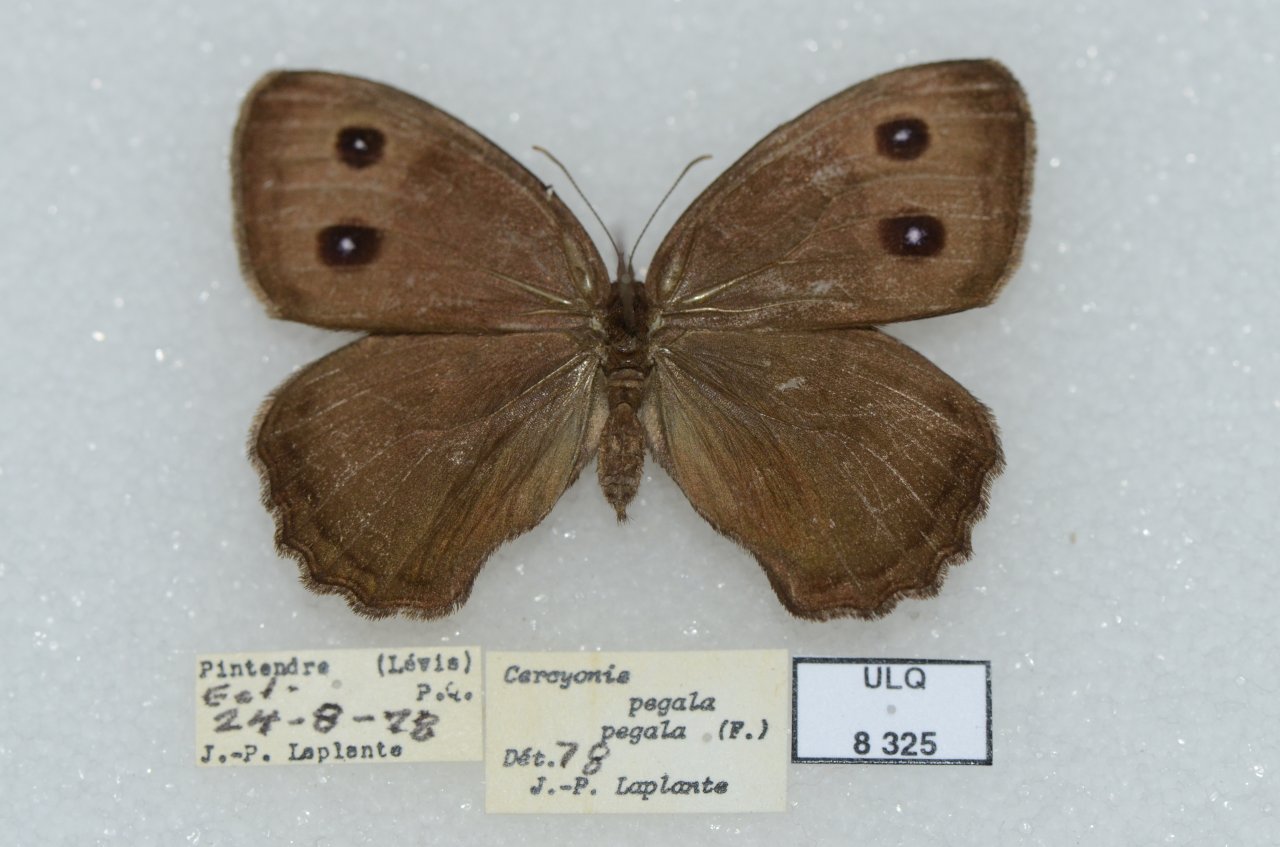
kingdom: Animalia
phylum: Arthropoda
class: Insecta
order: Lepidoptera
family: Nymphalidae
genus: Cercyonis
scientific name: Cercyonis pegala
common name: Common Wood-Nymph
